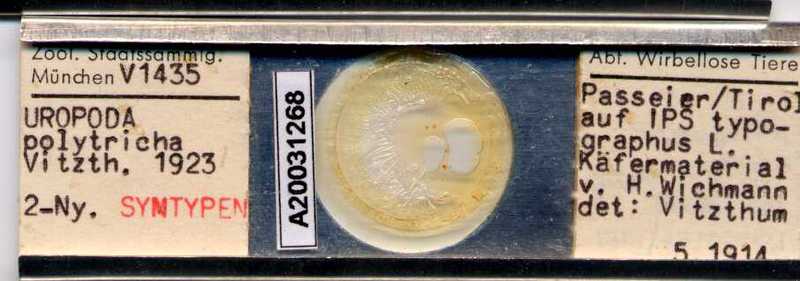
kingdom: Animalia
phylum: Arthropoda
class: Arachnida
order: Mesostigmata
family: Trematuridae
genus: Trichouropoda
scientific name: Trichouropoda polytricha
